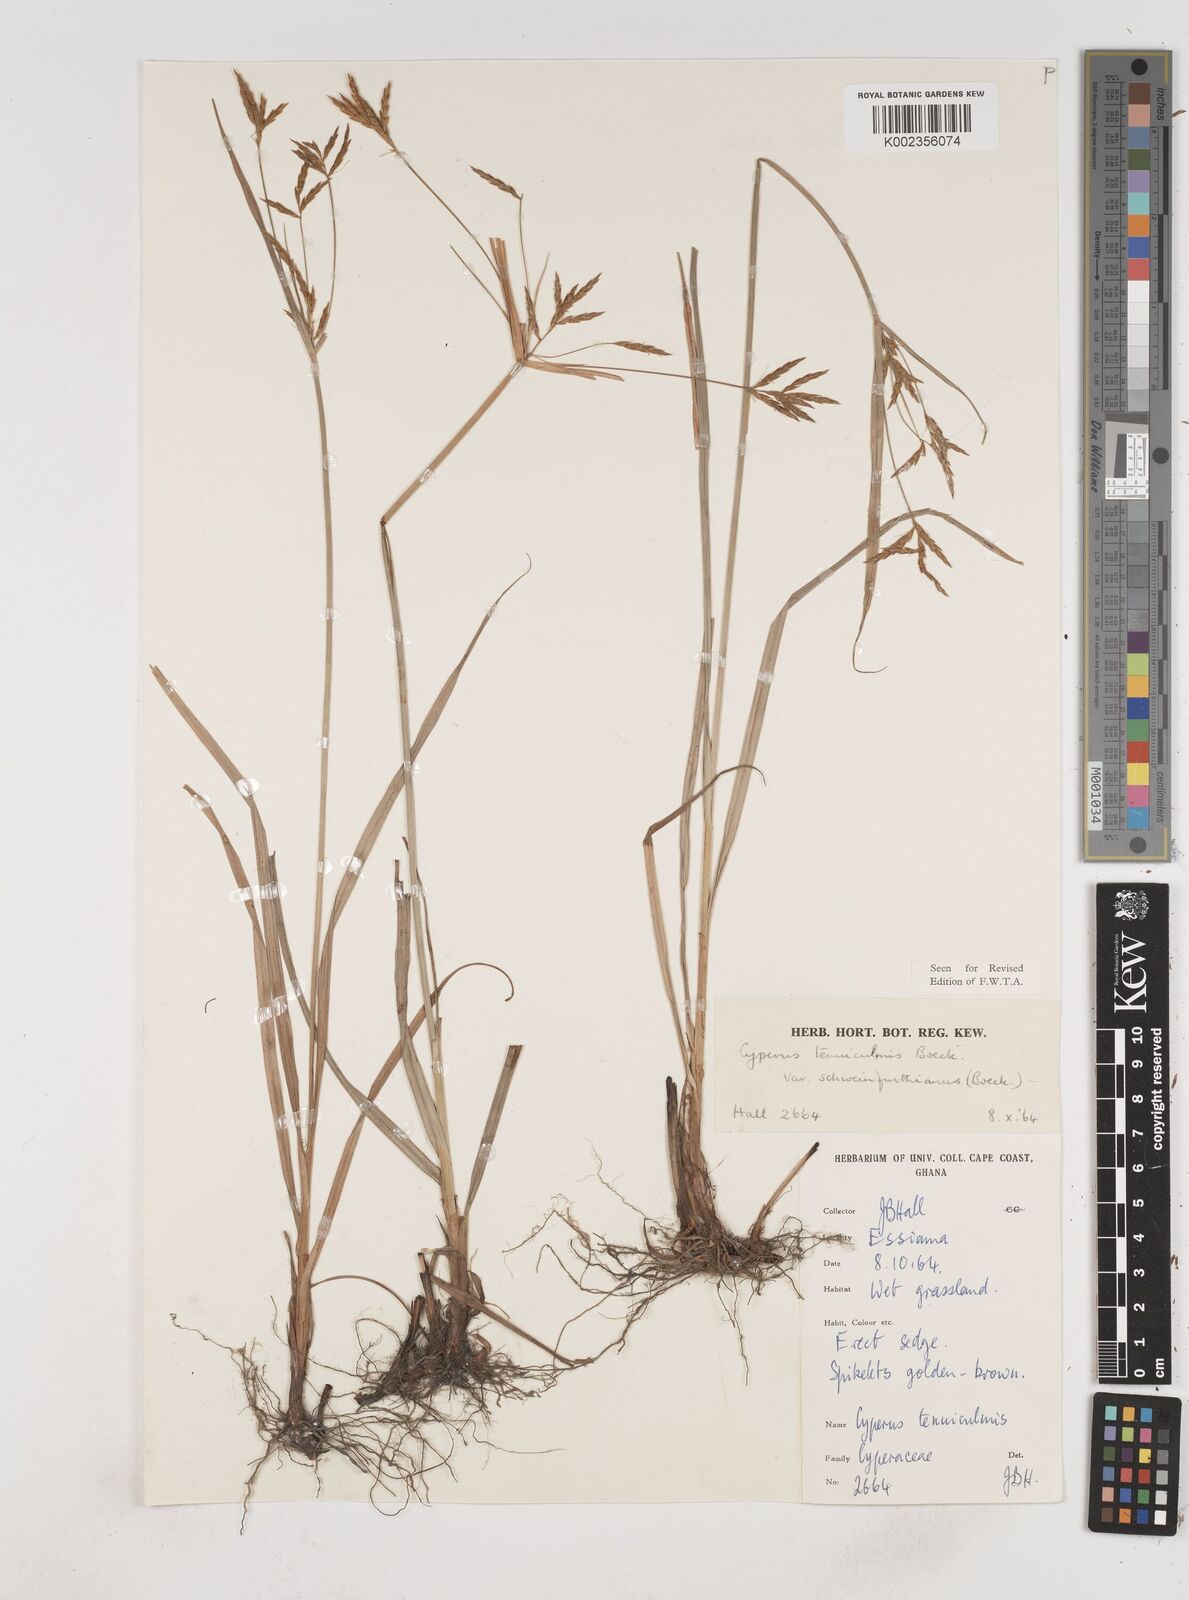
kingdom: Plantae
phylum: Tracheophyta
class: Liliopsida
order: Poales
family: Cyperaceae
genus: Cyperus
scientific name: Cyperus tenuiculmis
